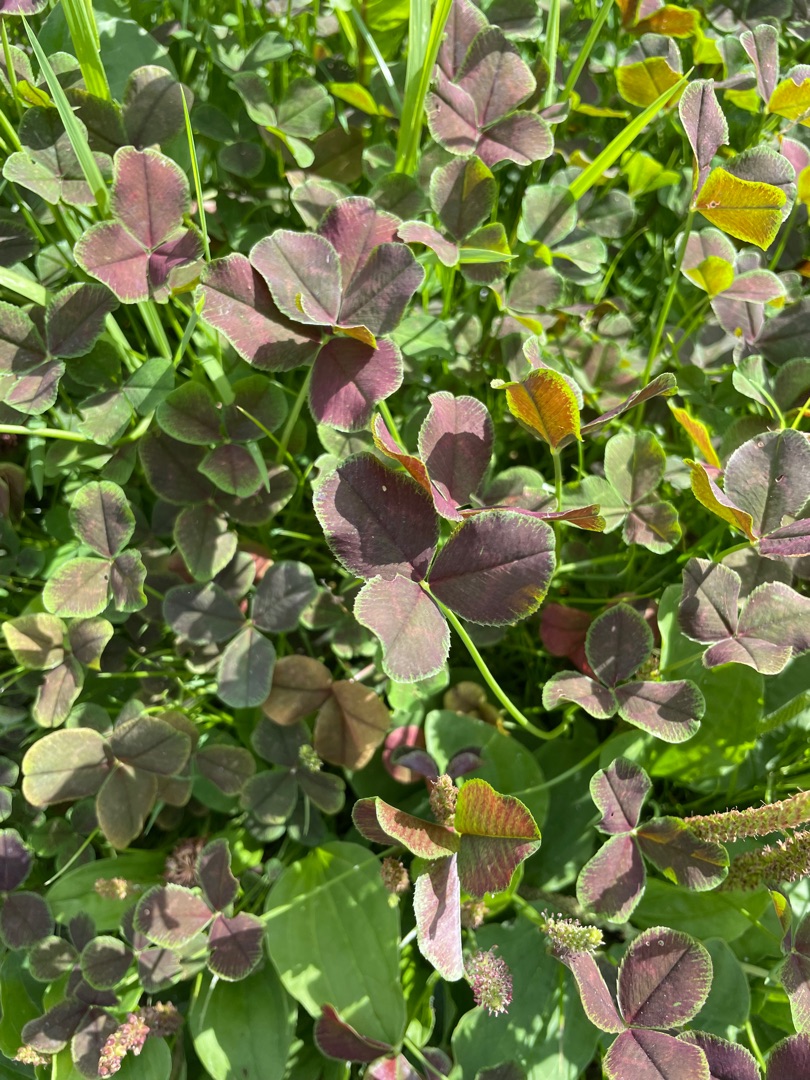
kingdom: Plantae
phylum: Tracheophyta
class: Magnoliopsida
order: Fabales
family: Fabaceae
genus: Trifolium
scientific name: Trifolium
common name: Kløverslægten
